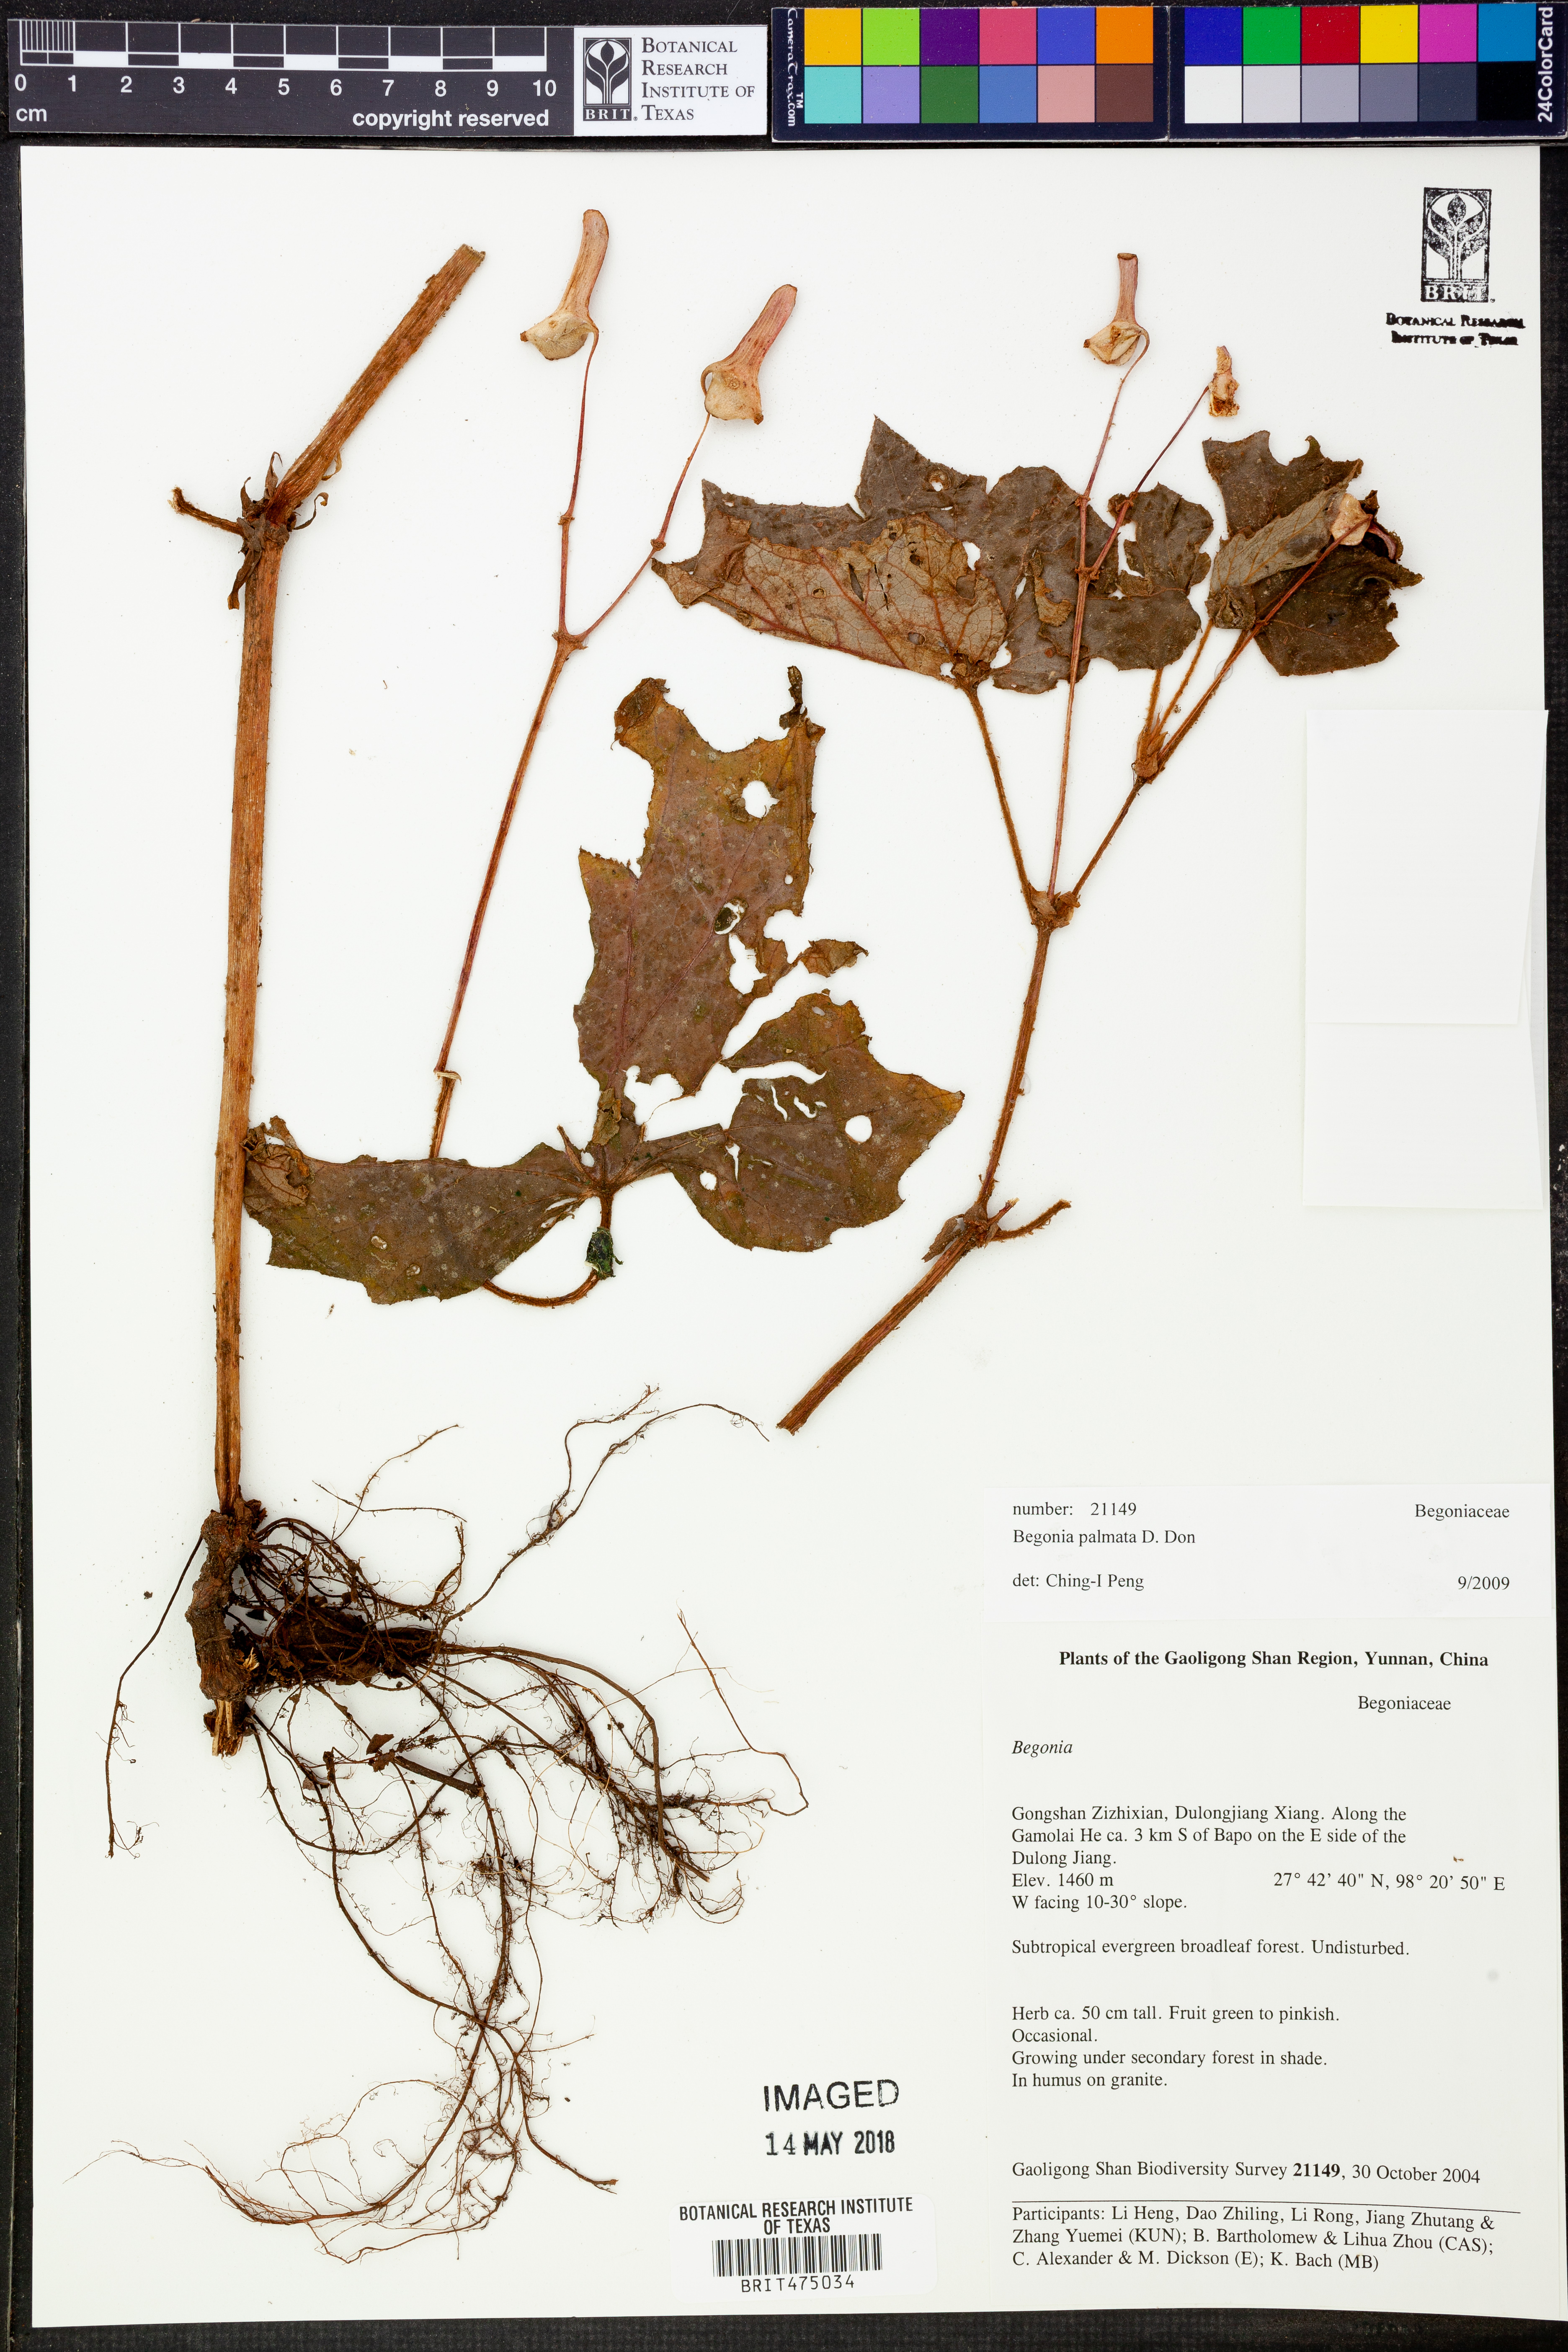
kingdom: Plantae
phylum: Tracheophyta
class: Magnoliopsida
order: Cucurbitales
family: Begoniaceae
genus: Begonia
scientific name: Begonia palmata
